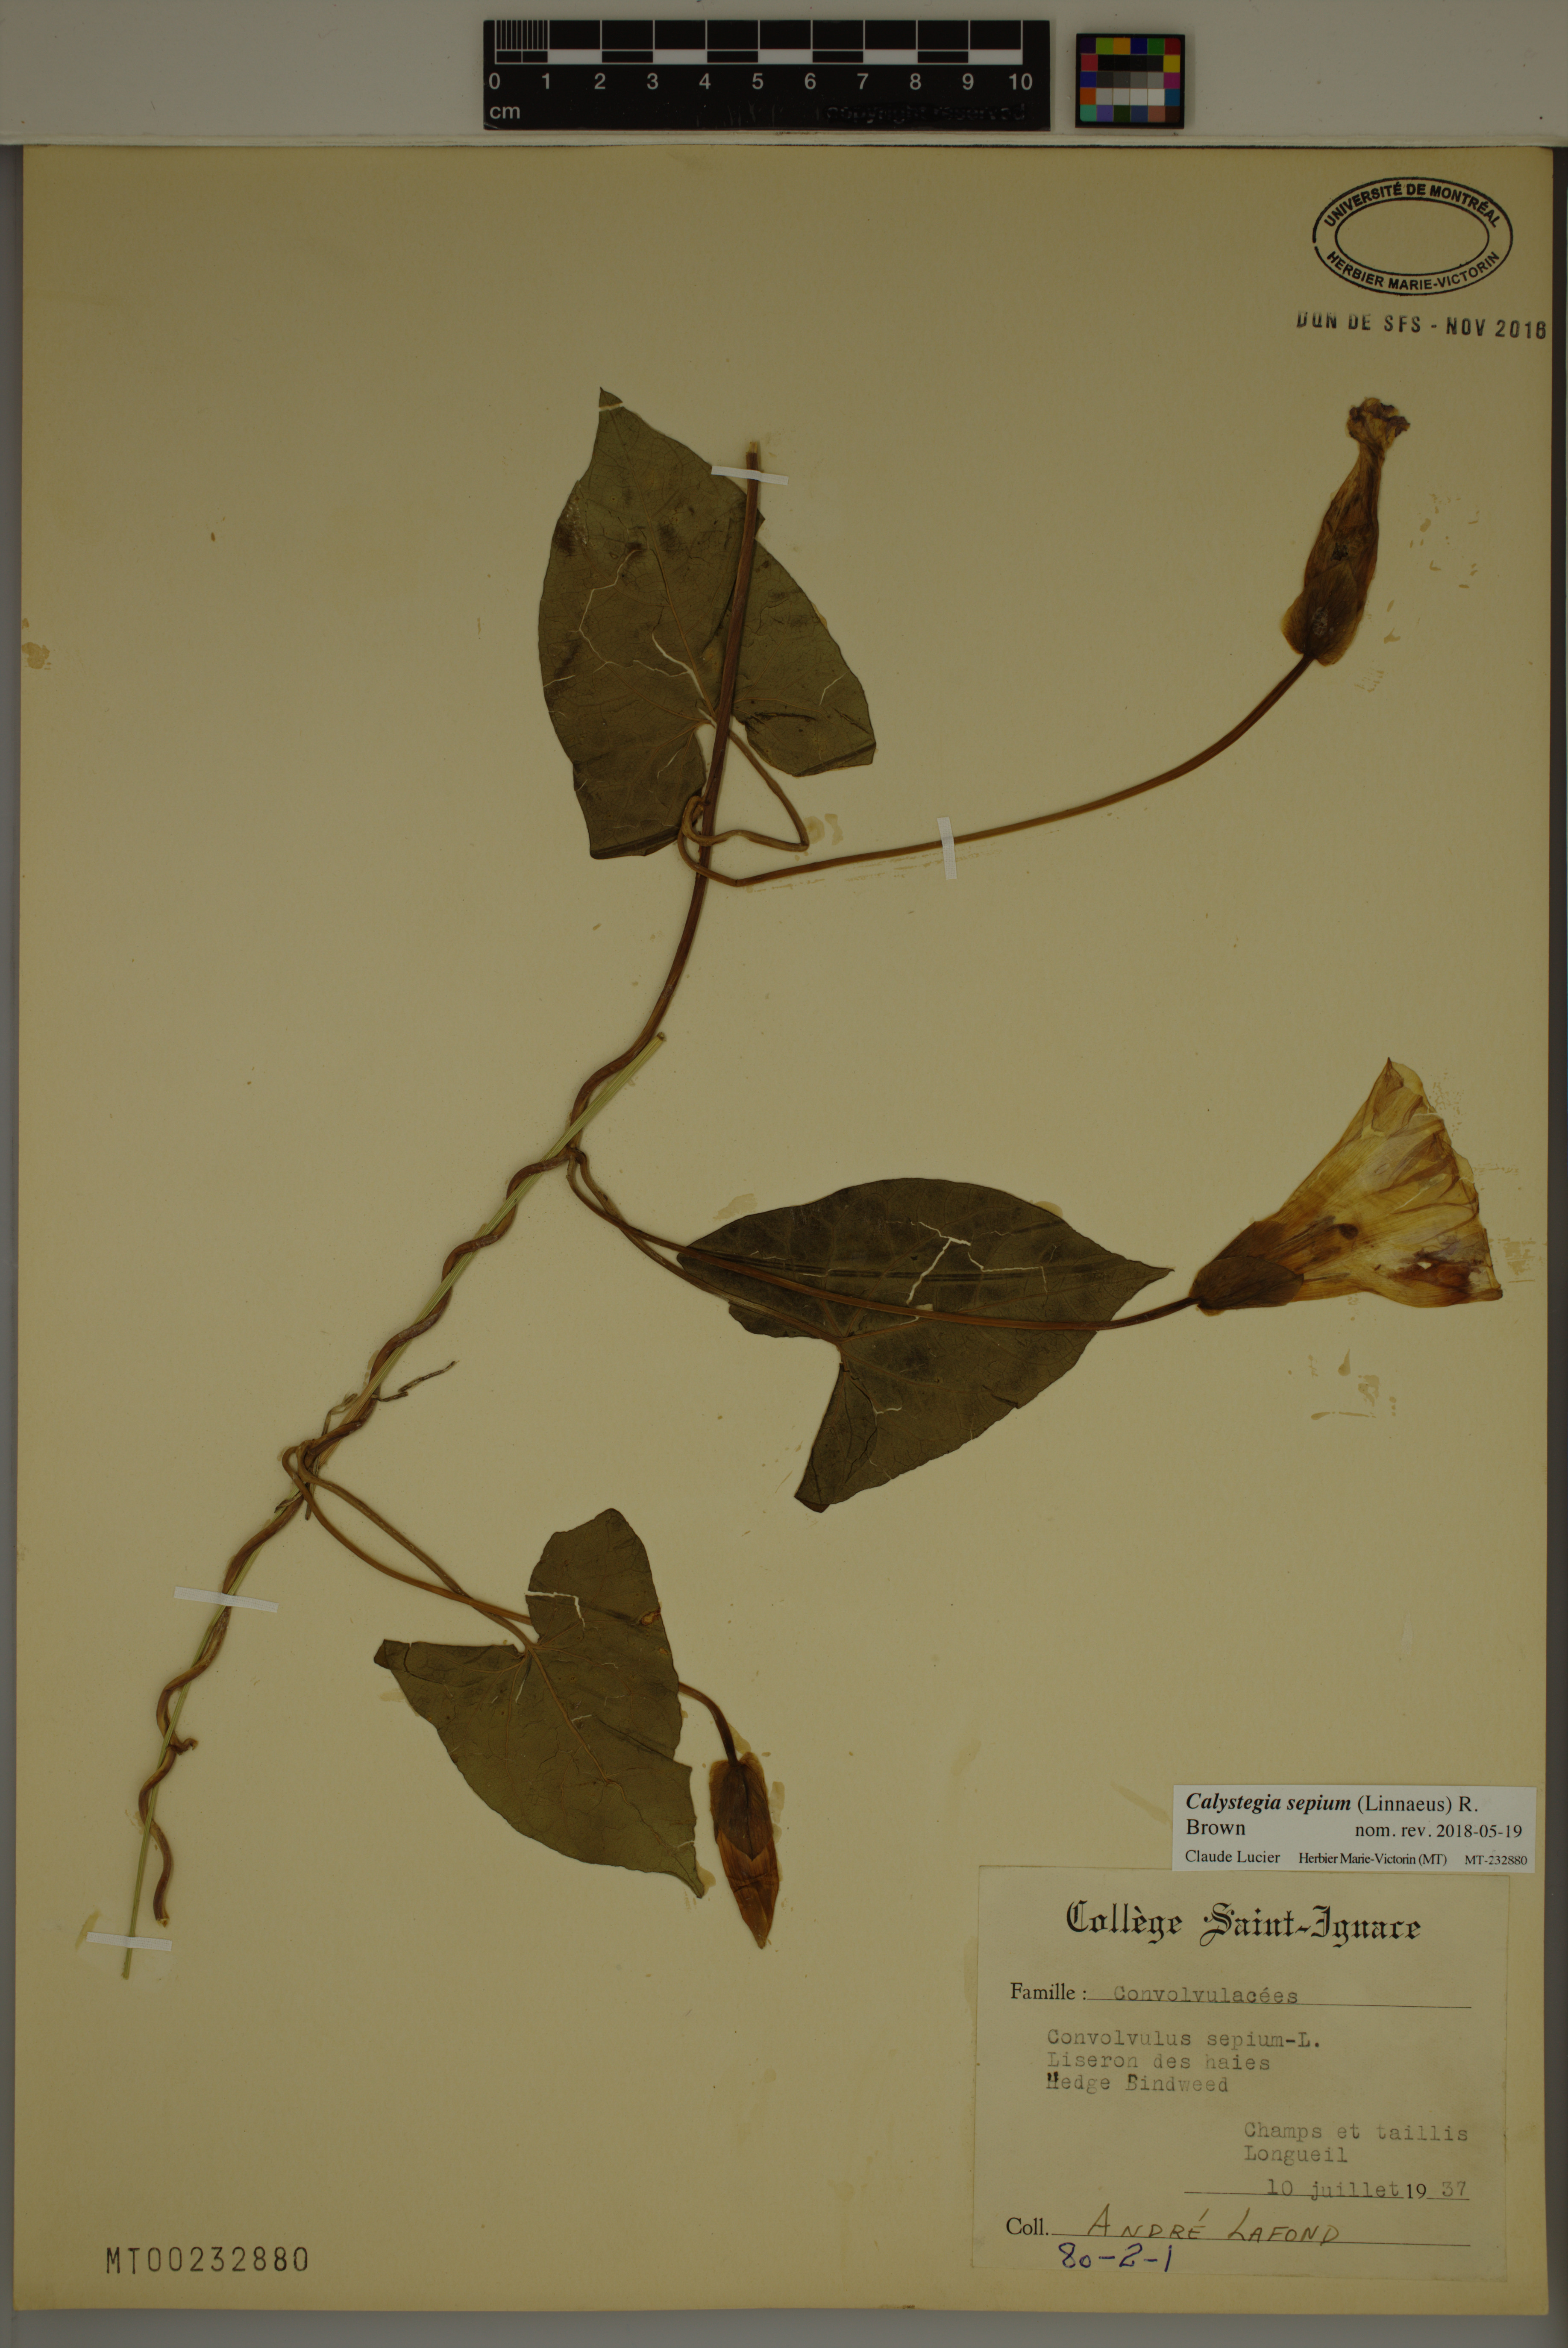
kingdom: Plantae
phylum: Tracheophyta
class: Magnoliopsida
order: Solanales
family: Convolvulaceae
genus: Calystegia
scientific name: Calystegia sepium
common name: Hedge bindweed
